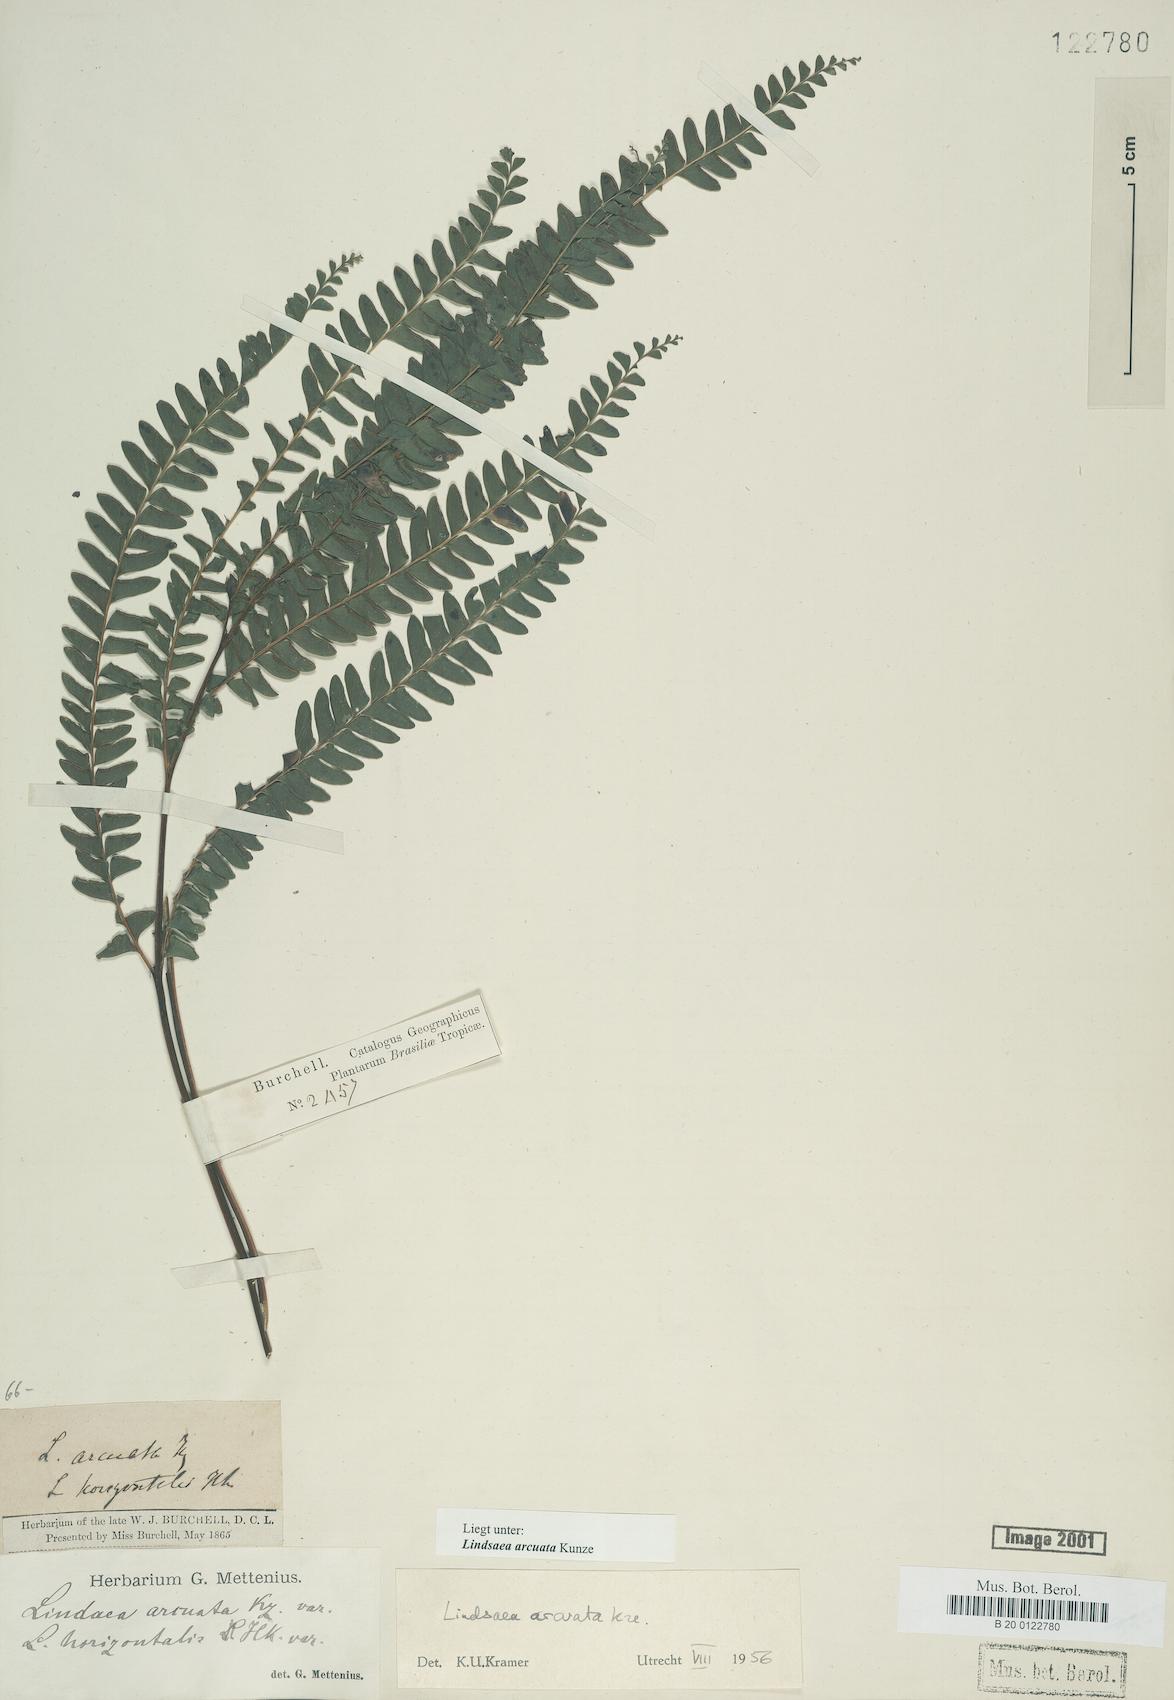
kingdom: Plantae
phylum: Tracheophyta
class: Polypodiopsida
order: Polypodiales
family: Lindsaeaceae
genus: Lindsaea
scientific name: Lindsaea arcuata
